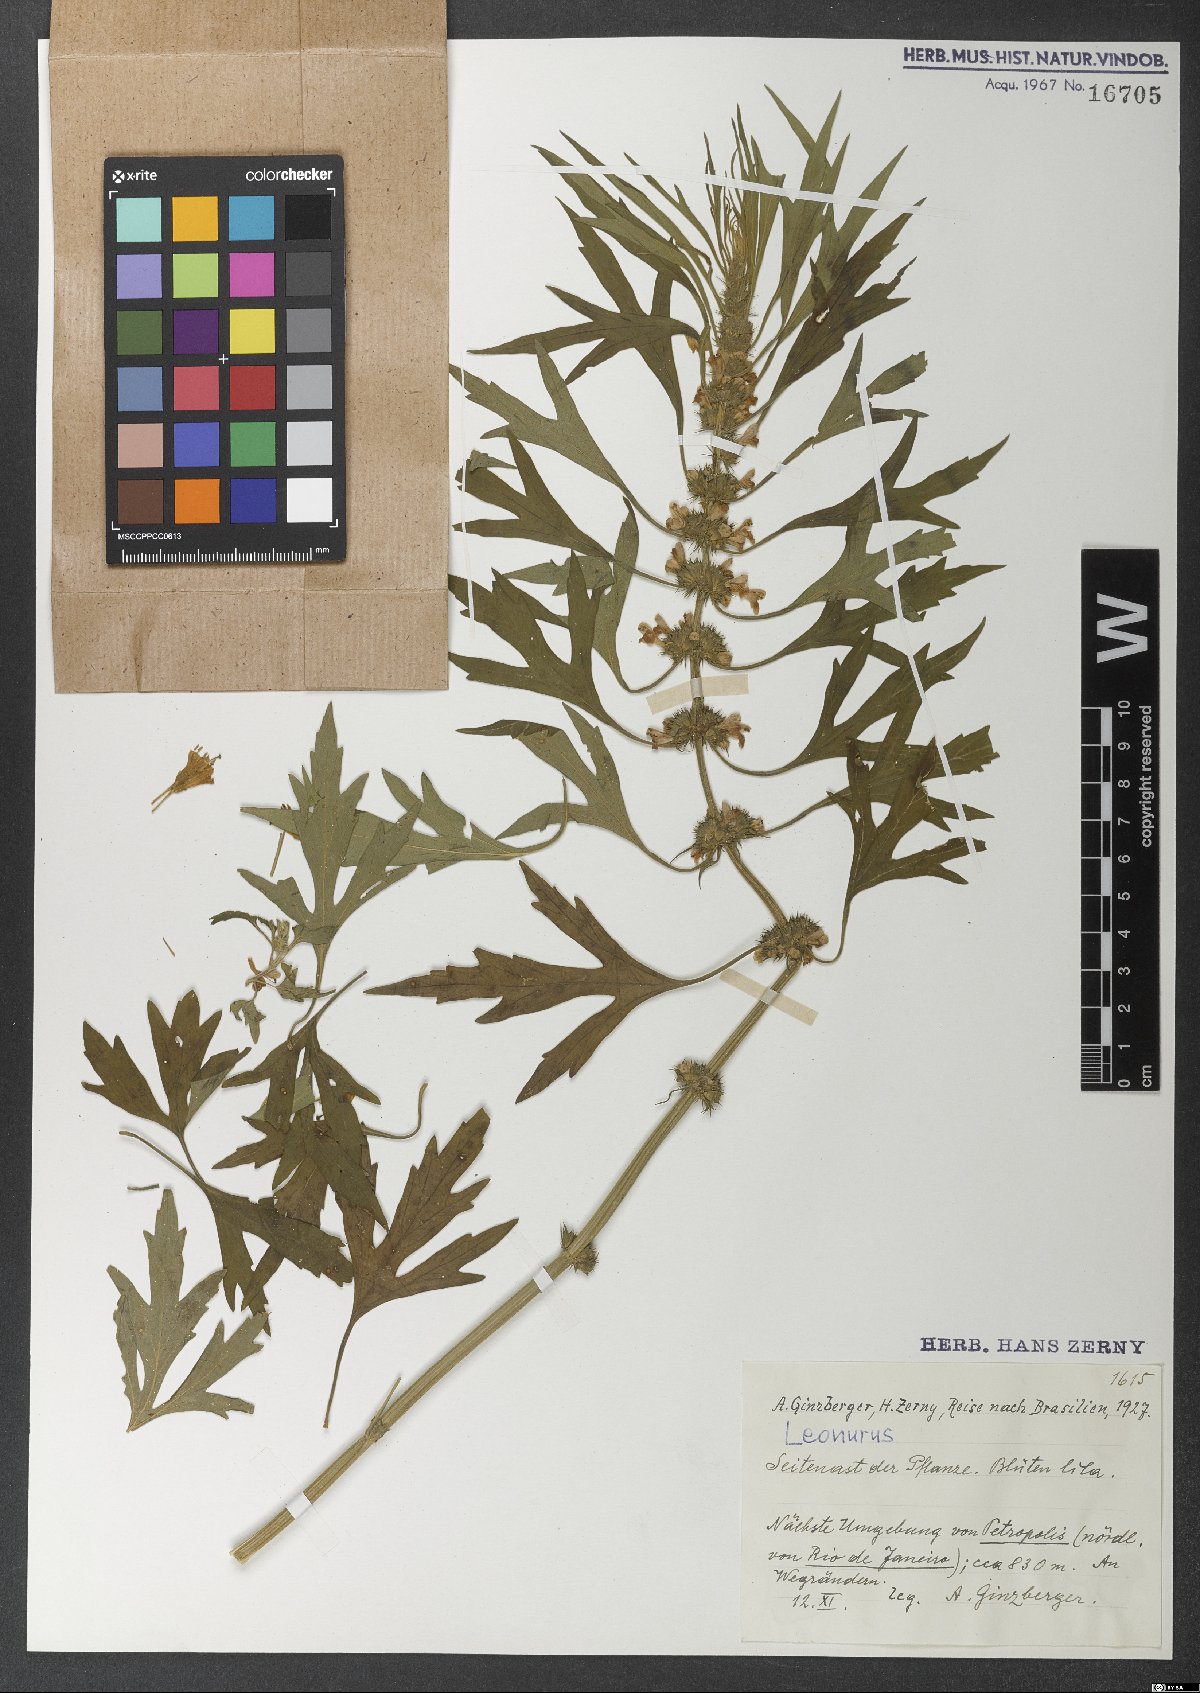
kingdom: Plantae
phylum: Tracheophyta
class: Magnoliopsida
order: Lamiales
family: Lamiaceae
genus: Leonurus
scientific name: Leonurus
